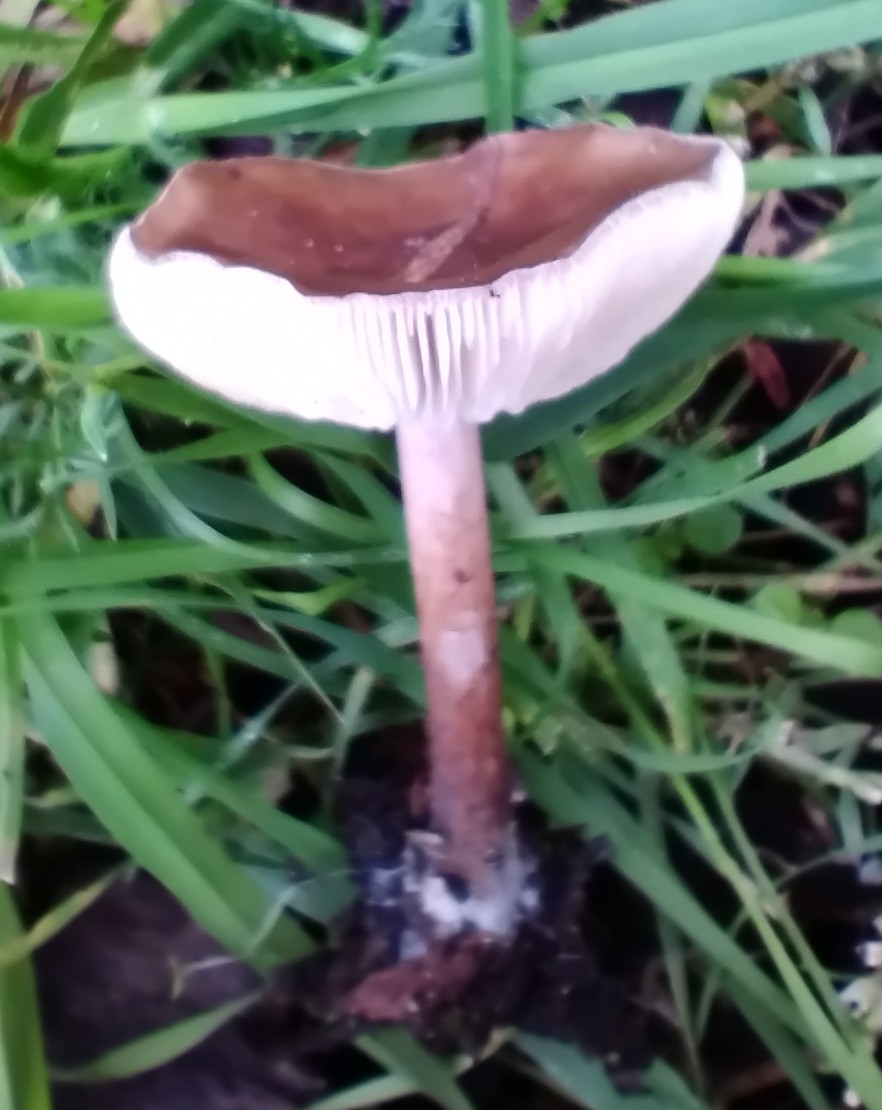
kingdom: Fungi
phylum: Basidiomycota
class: Agaricomycetes
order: Agaricales
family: Tricholomataceae
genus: Melanoleuca
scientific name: Melanoleuca
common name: munkehat
